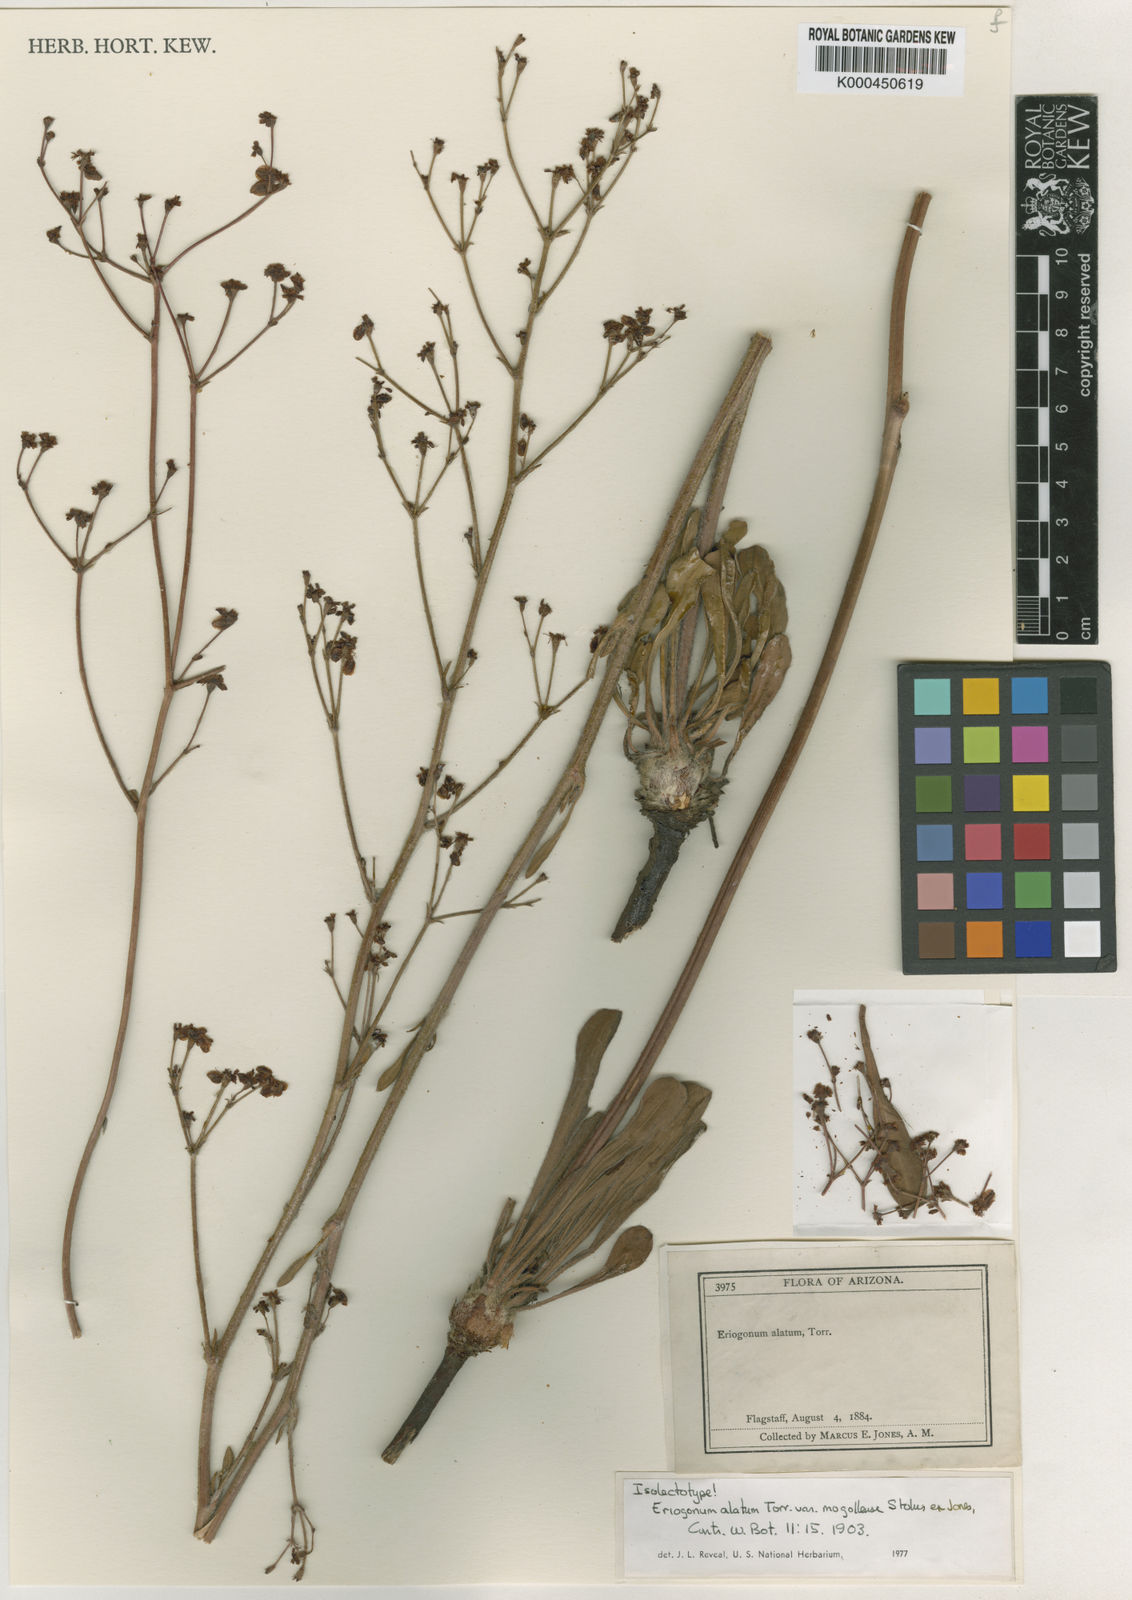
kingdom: Plantae
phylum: Tracheophyta
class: Magnoliopsida
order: Caryophyllales
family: Polygonaceae
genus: Eriogonum
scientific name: Eriogonum alatum
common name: Winged eriogonum
